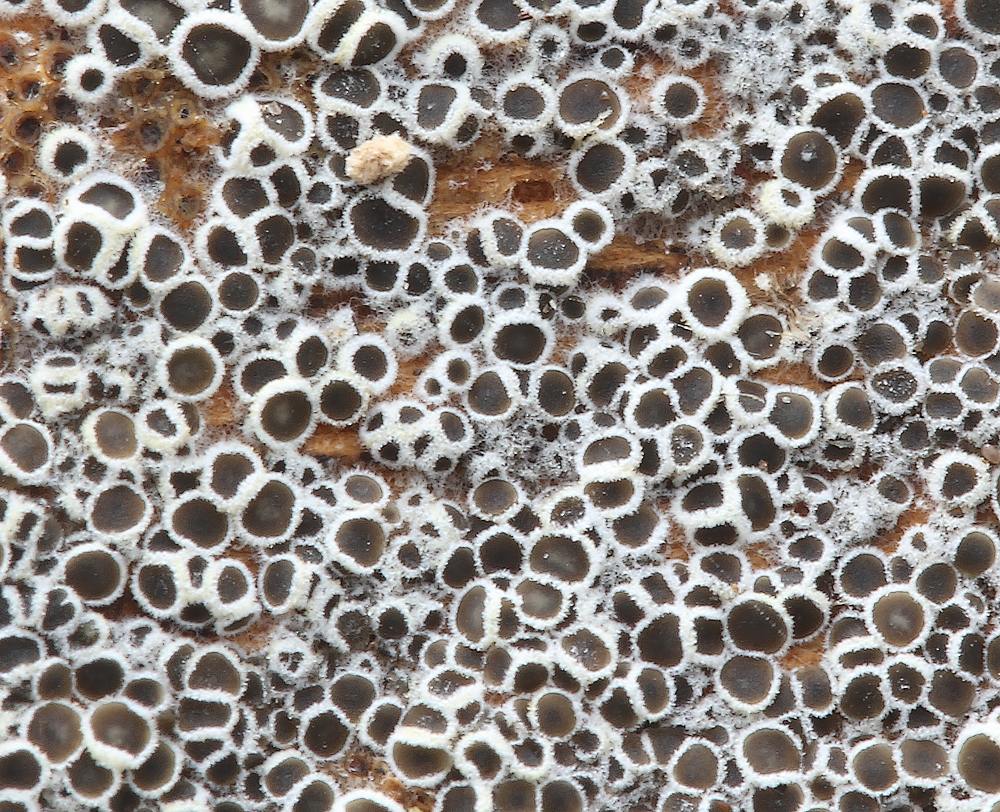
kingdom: Fungi
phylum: Ascomycota
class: Leotiomycetes
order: Helotiales
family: Arachnopezizaceae
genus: Eriopezia
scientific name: Eriopezia caesia
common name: ege-spindskive
